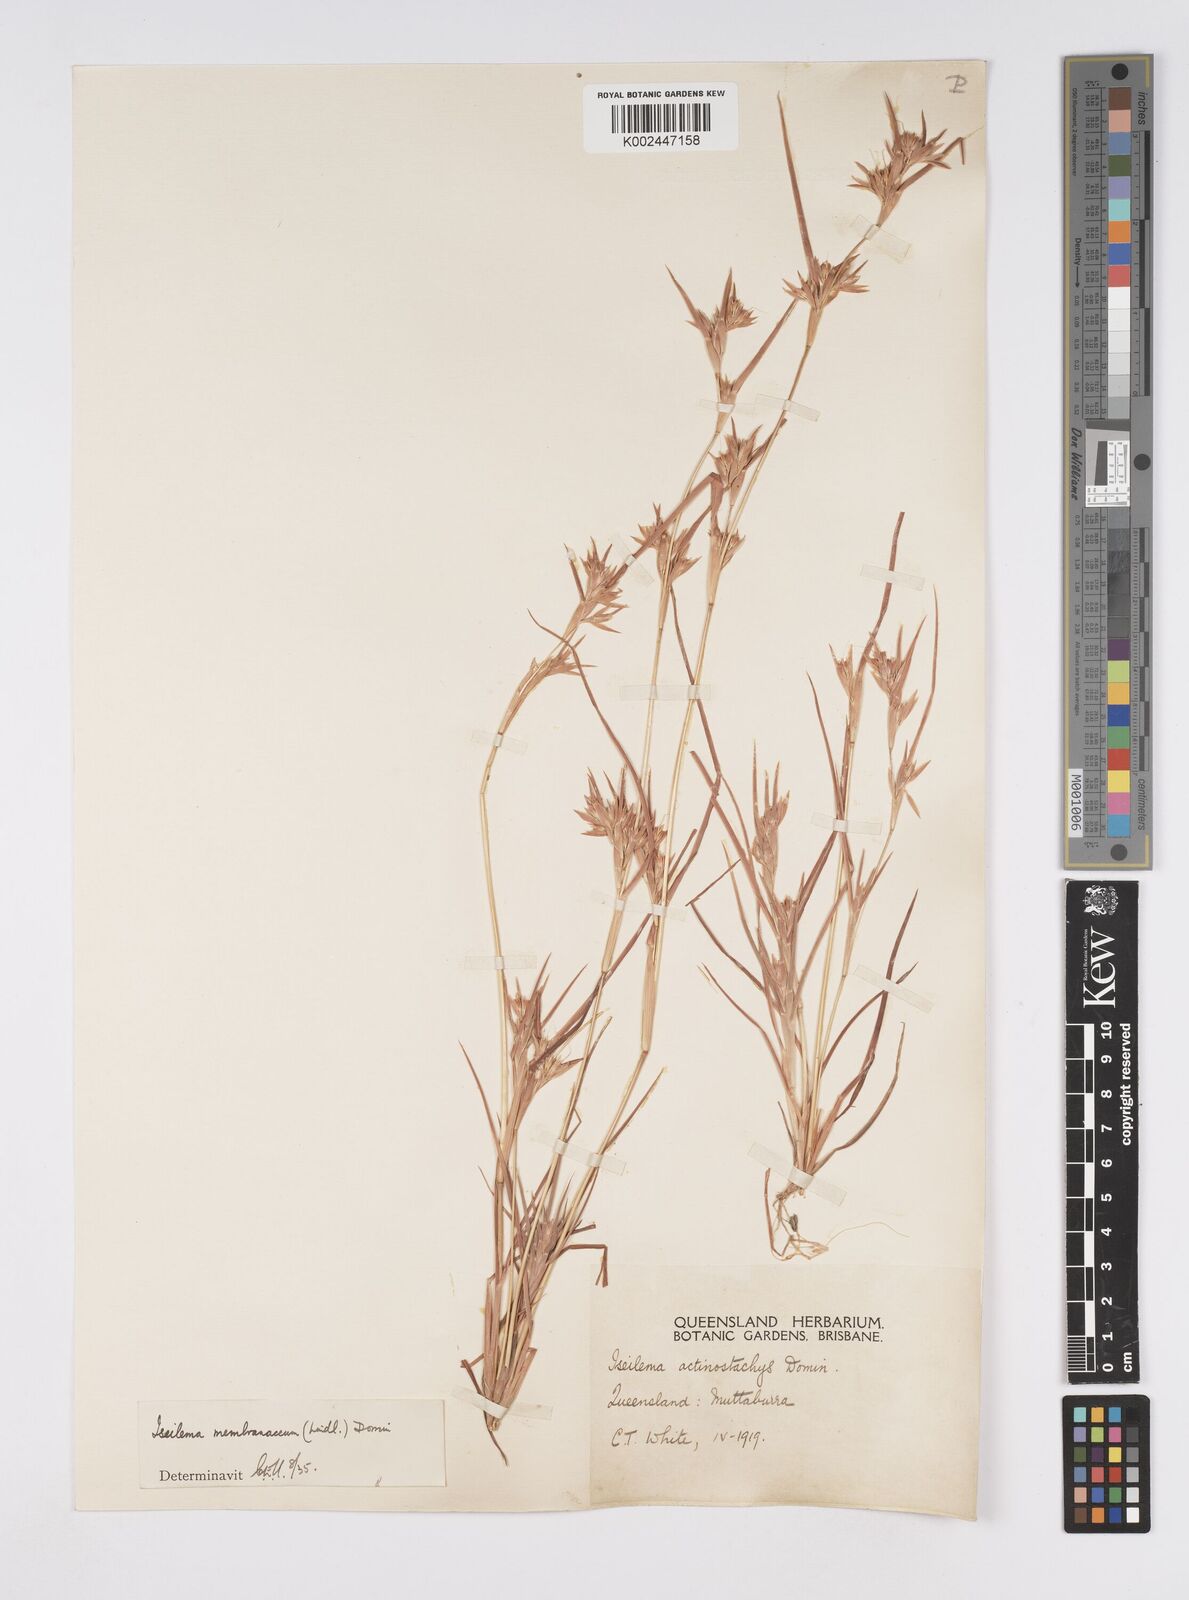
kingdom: Plantae
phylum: Tracheophyta
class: Liliopsida
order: Poales
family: Poaceae
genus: Iseilema
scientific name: Iseilema membranaceum
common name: Small flinders grass
